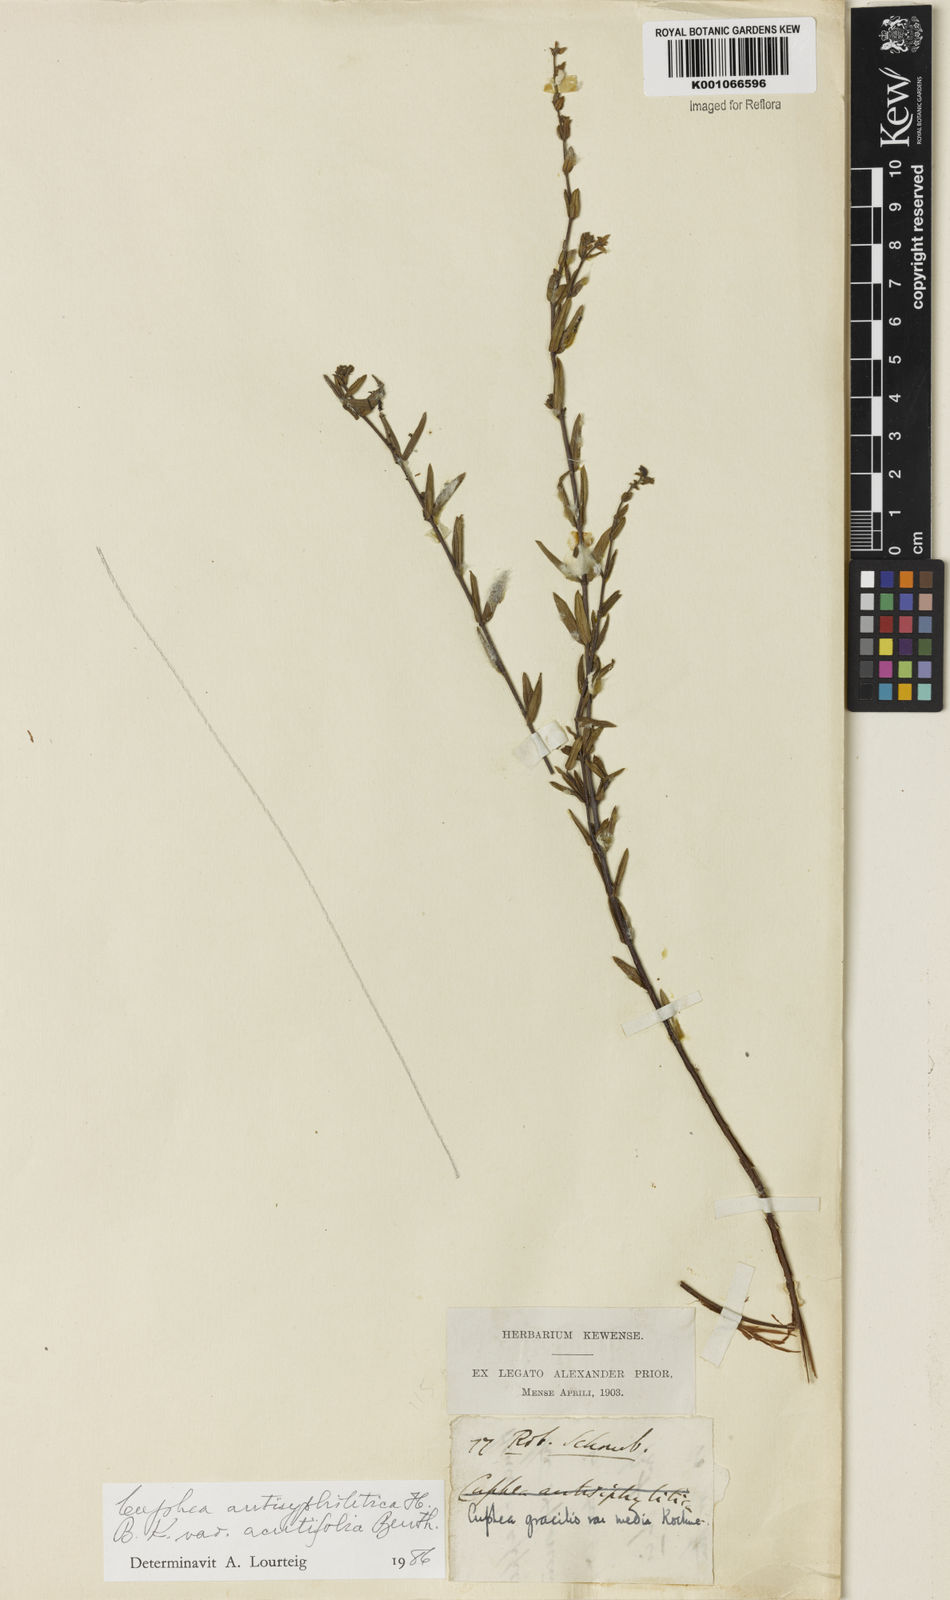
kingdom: Plantae
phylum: Tracheophyta
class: Magnoliopsida
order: Myrtales
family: Lythraceae
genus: Cuphea
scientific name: Cuphea antisyphilitica
